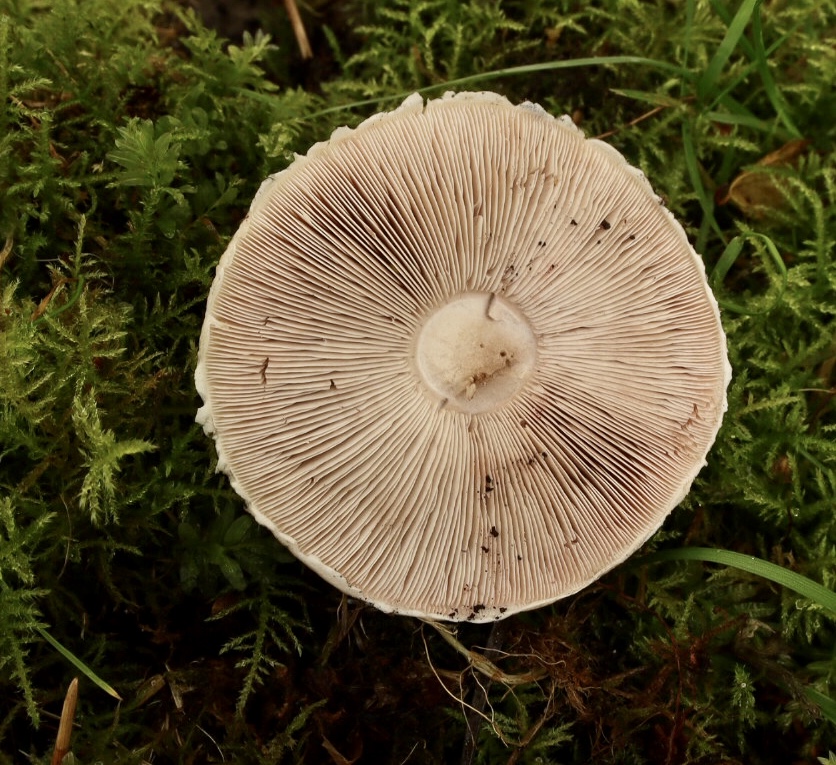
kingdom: Fungi
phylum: Basidiomycota
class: Agaricomycetes
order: Agaricales
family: Agaricaceae
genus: Agaricus
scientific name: Agaricus impudicus
